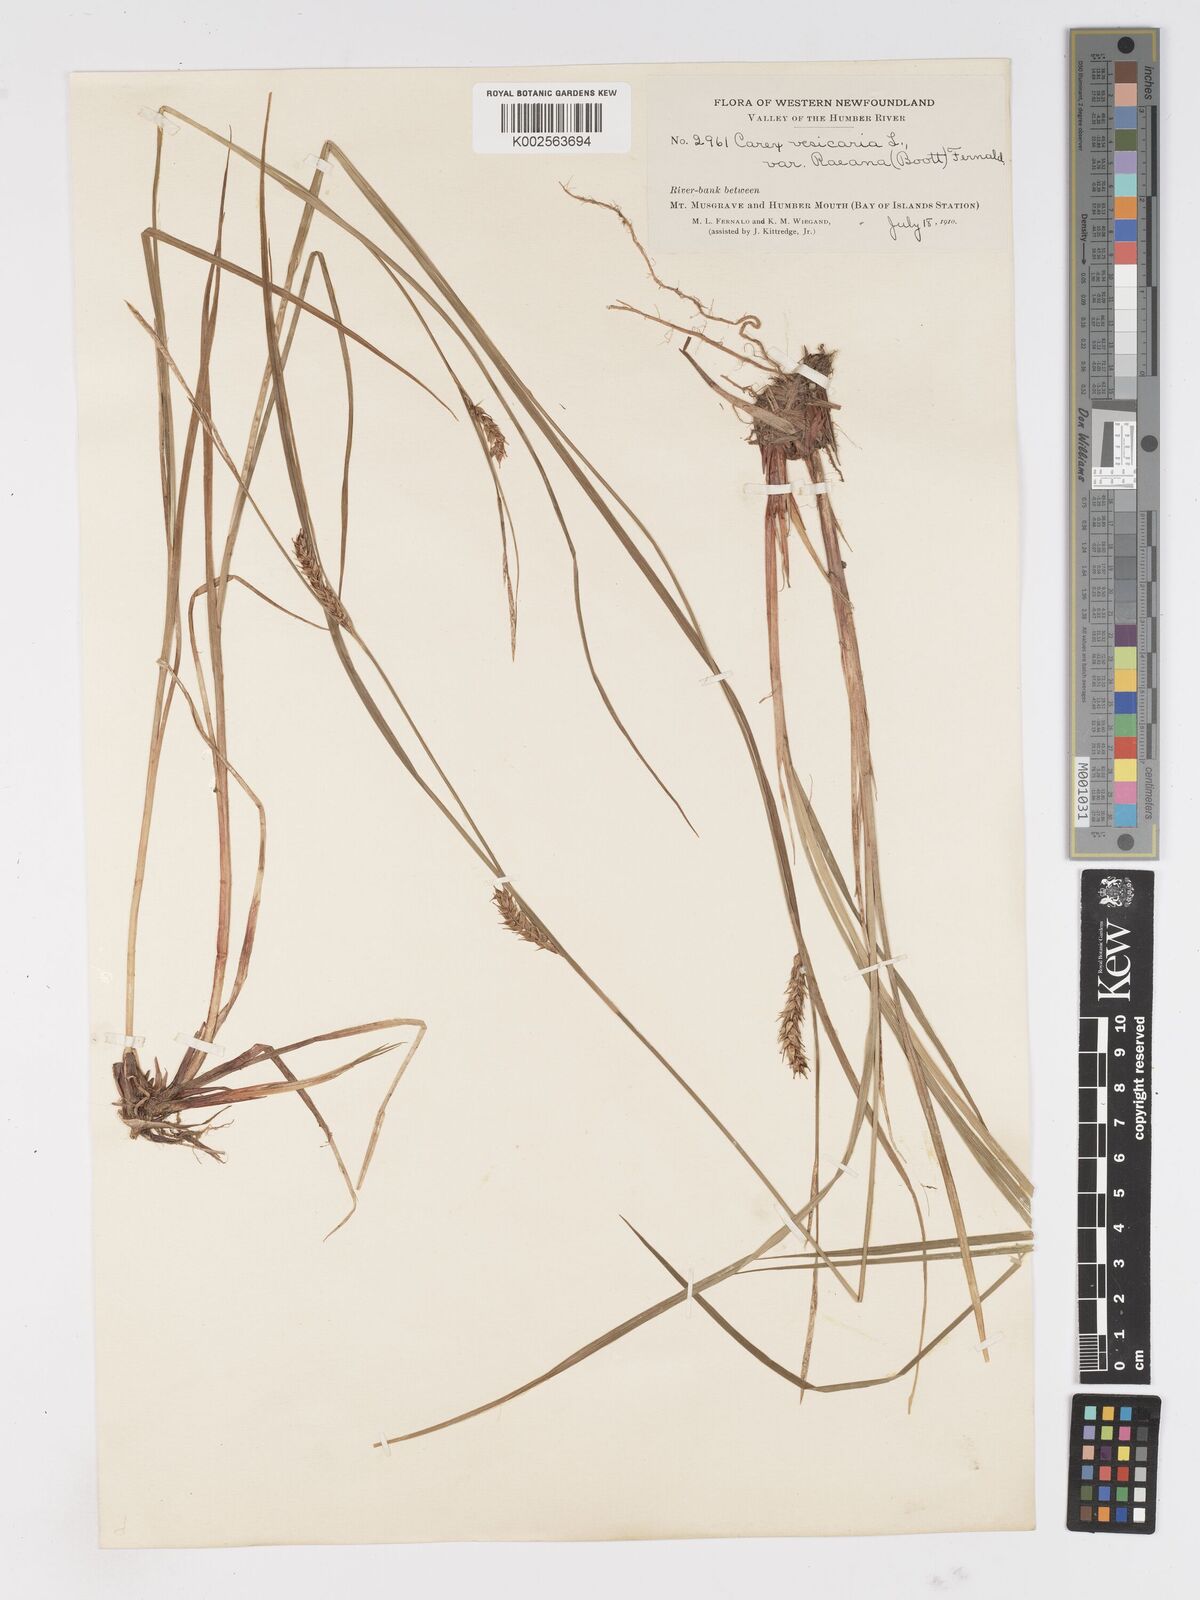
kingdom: Plantae
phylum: Tracheophyta
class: Liliopsida
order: Poales
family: Cyperaceae
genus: Carex
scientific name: Carex vesicaria
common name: Bladder-sedge
